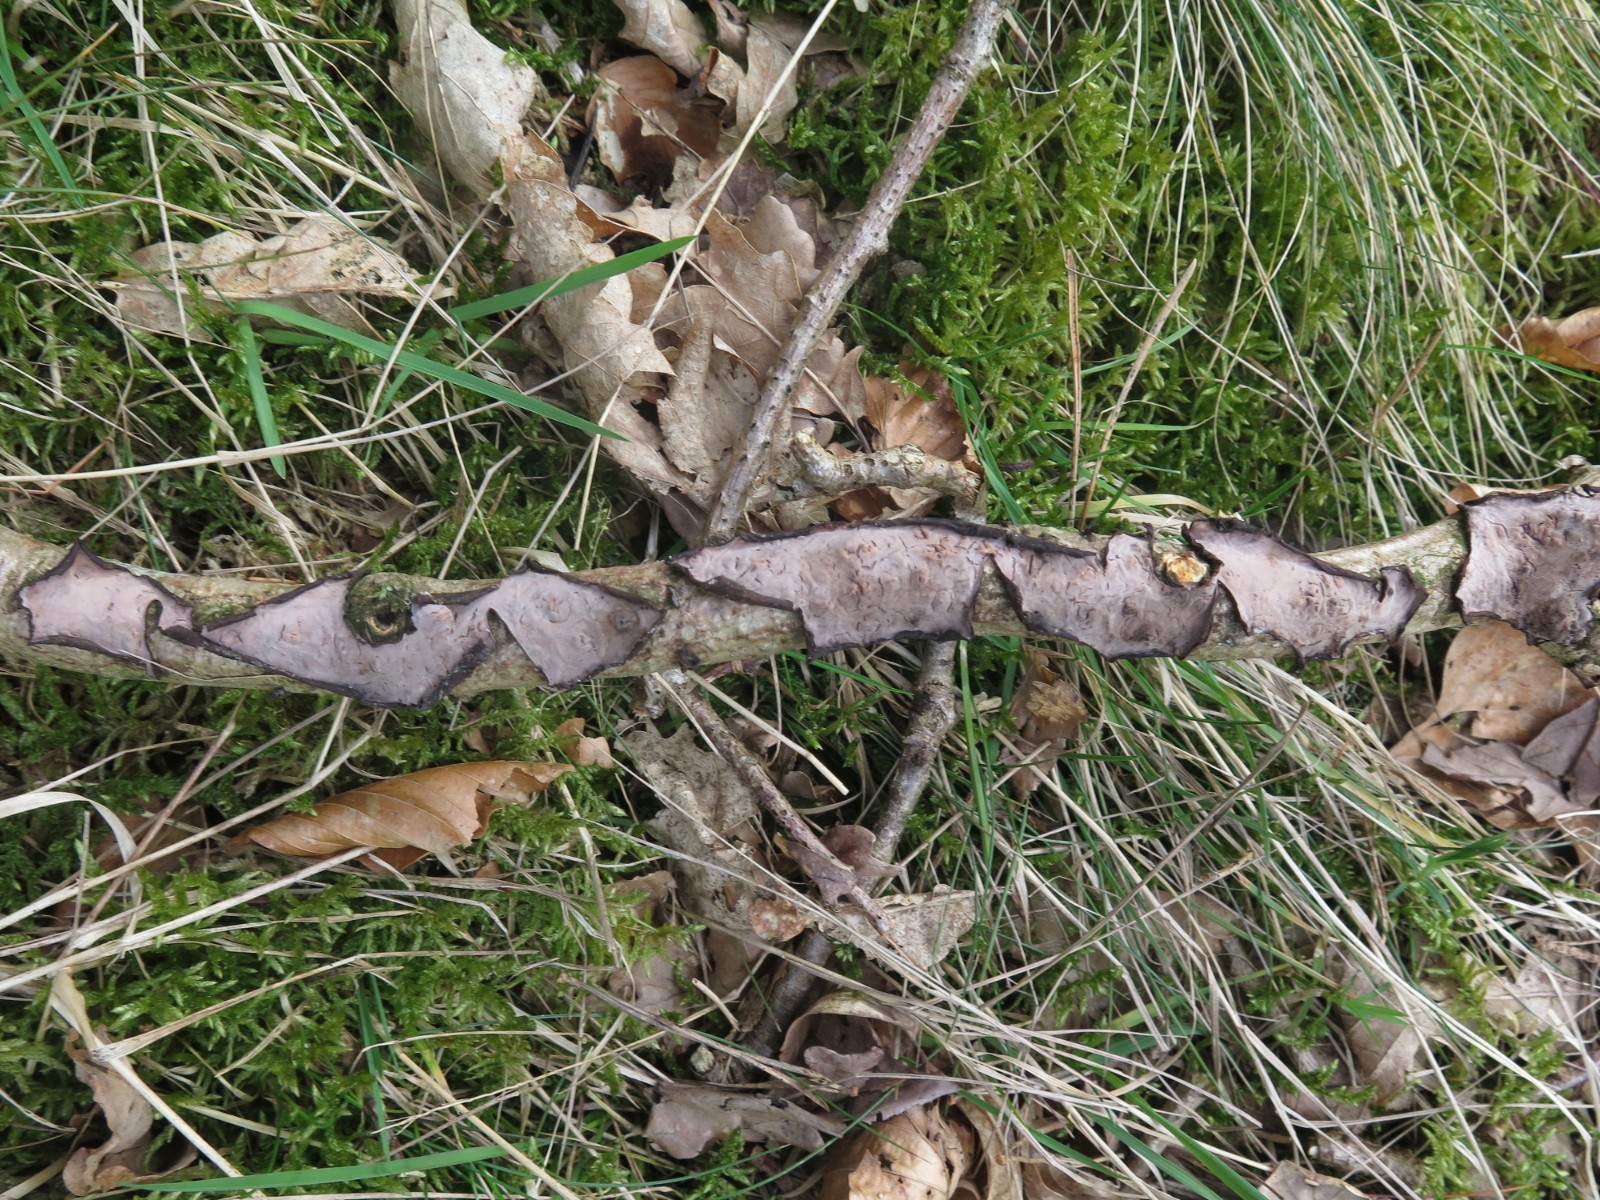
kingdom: Fungi
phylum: Basidiomycota
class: Agaricomycetes
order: Russulales
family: Peniophoraceae
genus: Peniophora
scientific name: Peniophora quercina
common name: ege-voksskind
